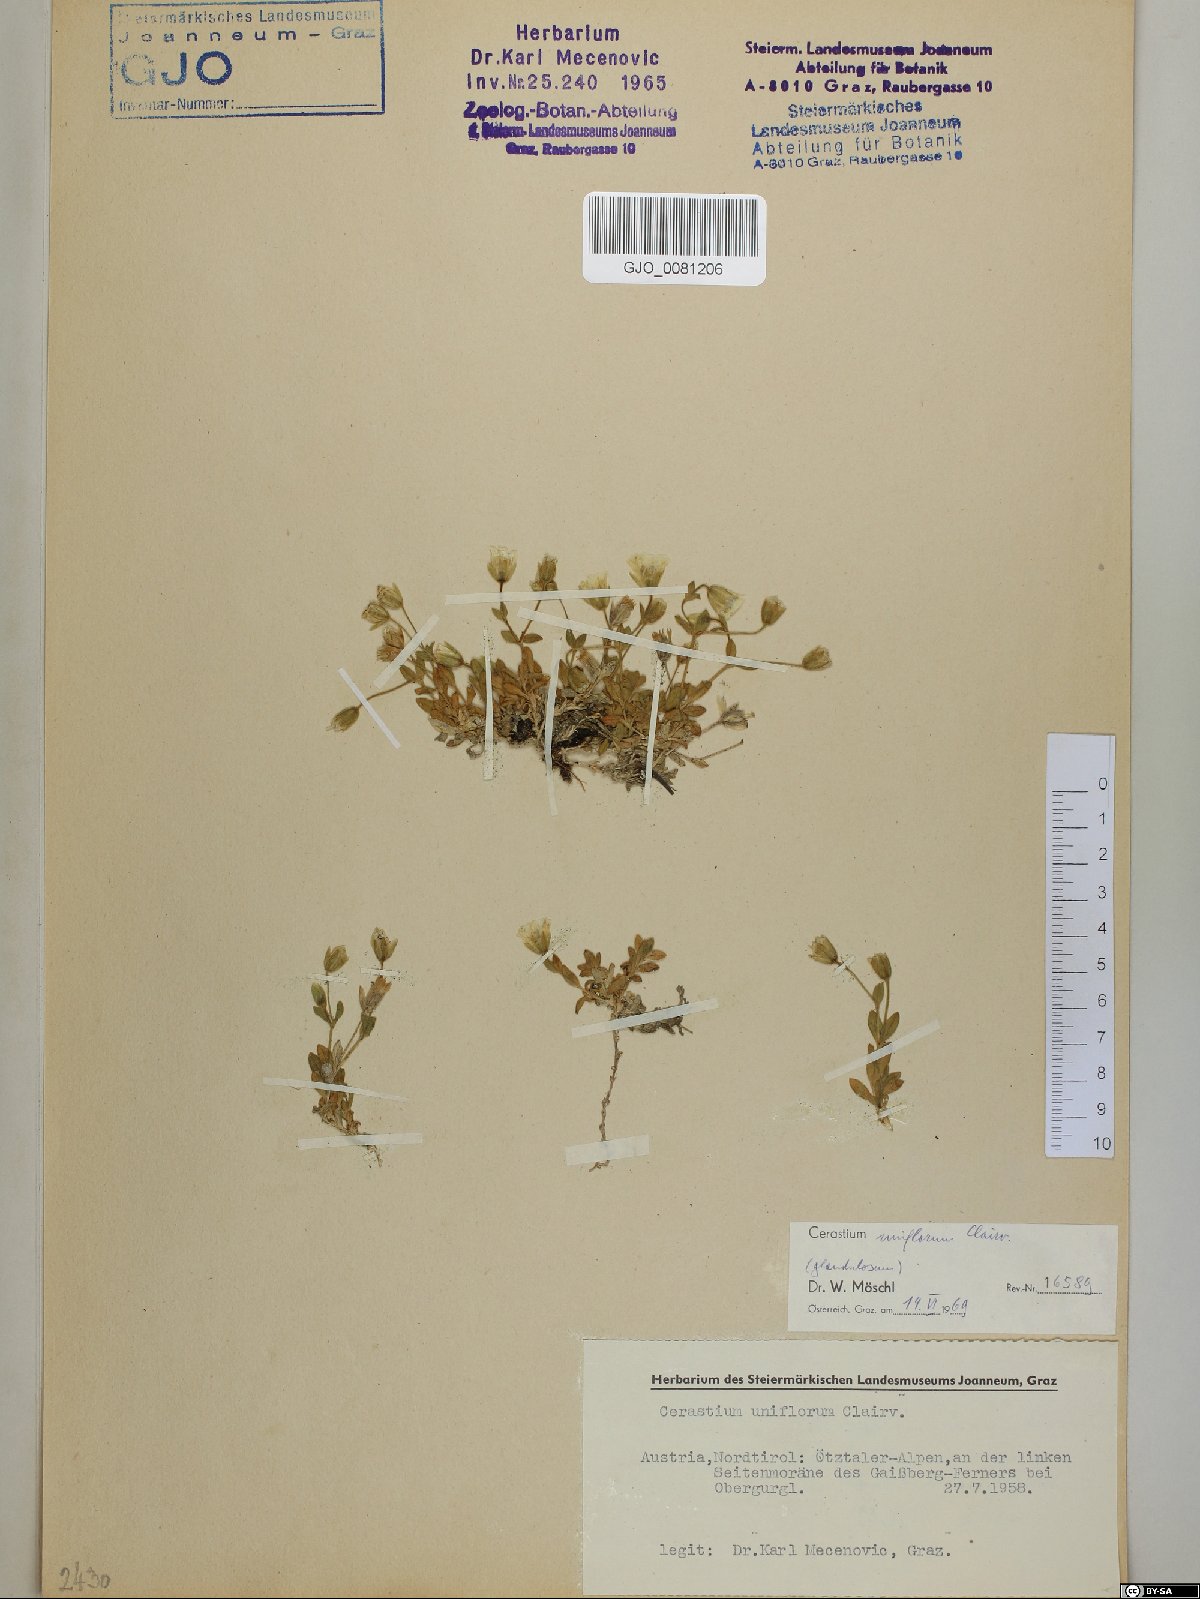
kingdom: Plantae
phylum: Tracheophyta
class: Magnoliopsida
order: Caryophyllales
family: Caryophyllaceae
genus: Cerastium
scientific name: Cerastium uniflorum
